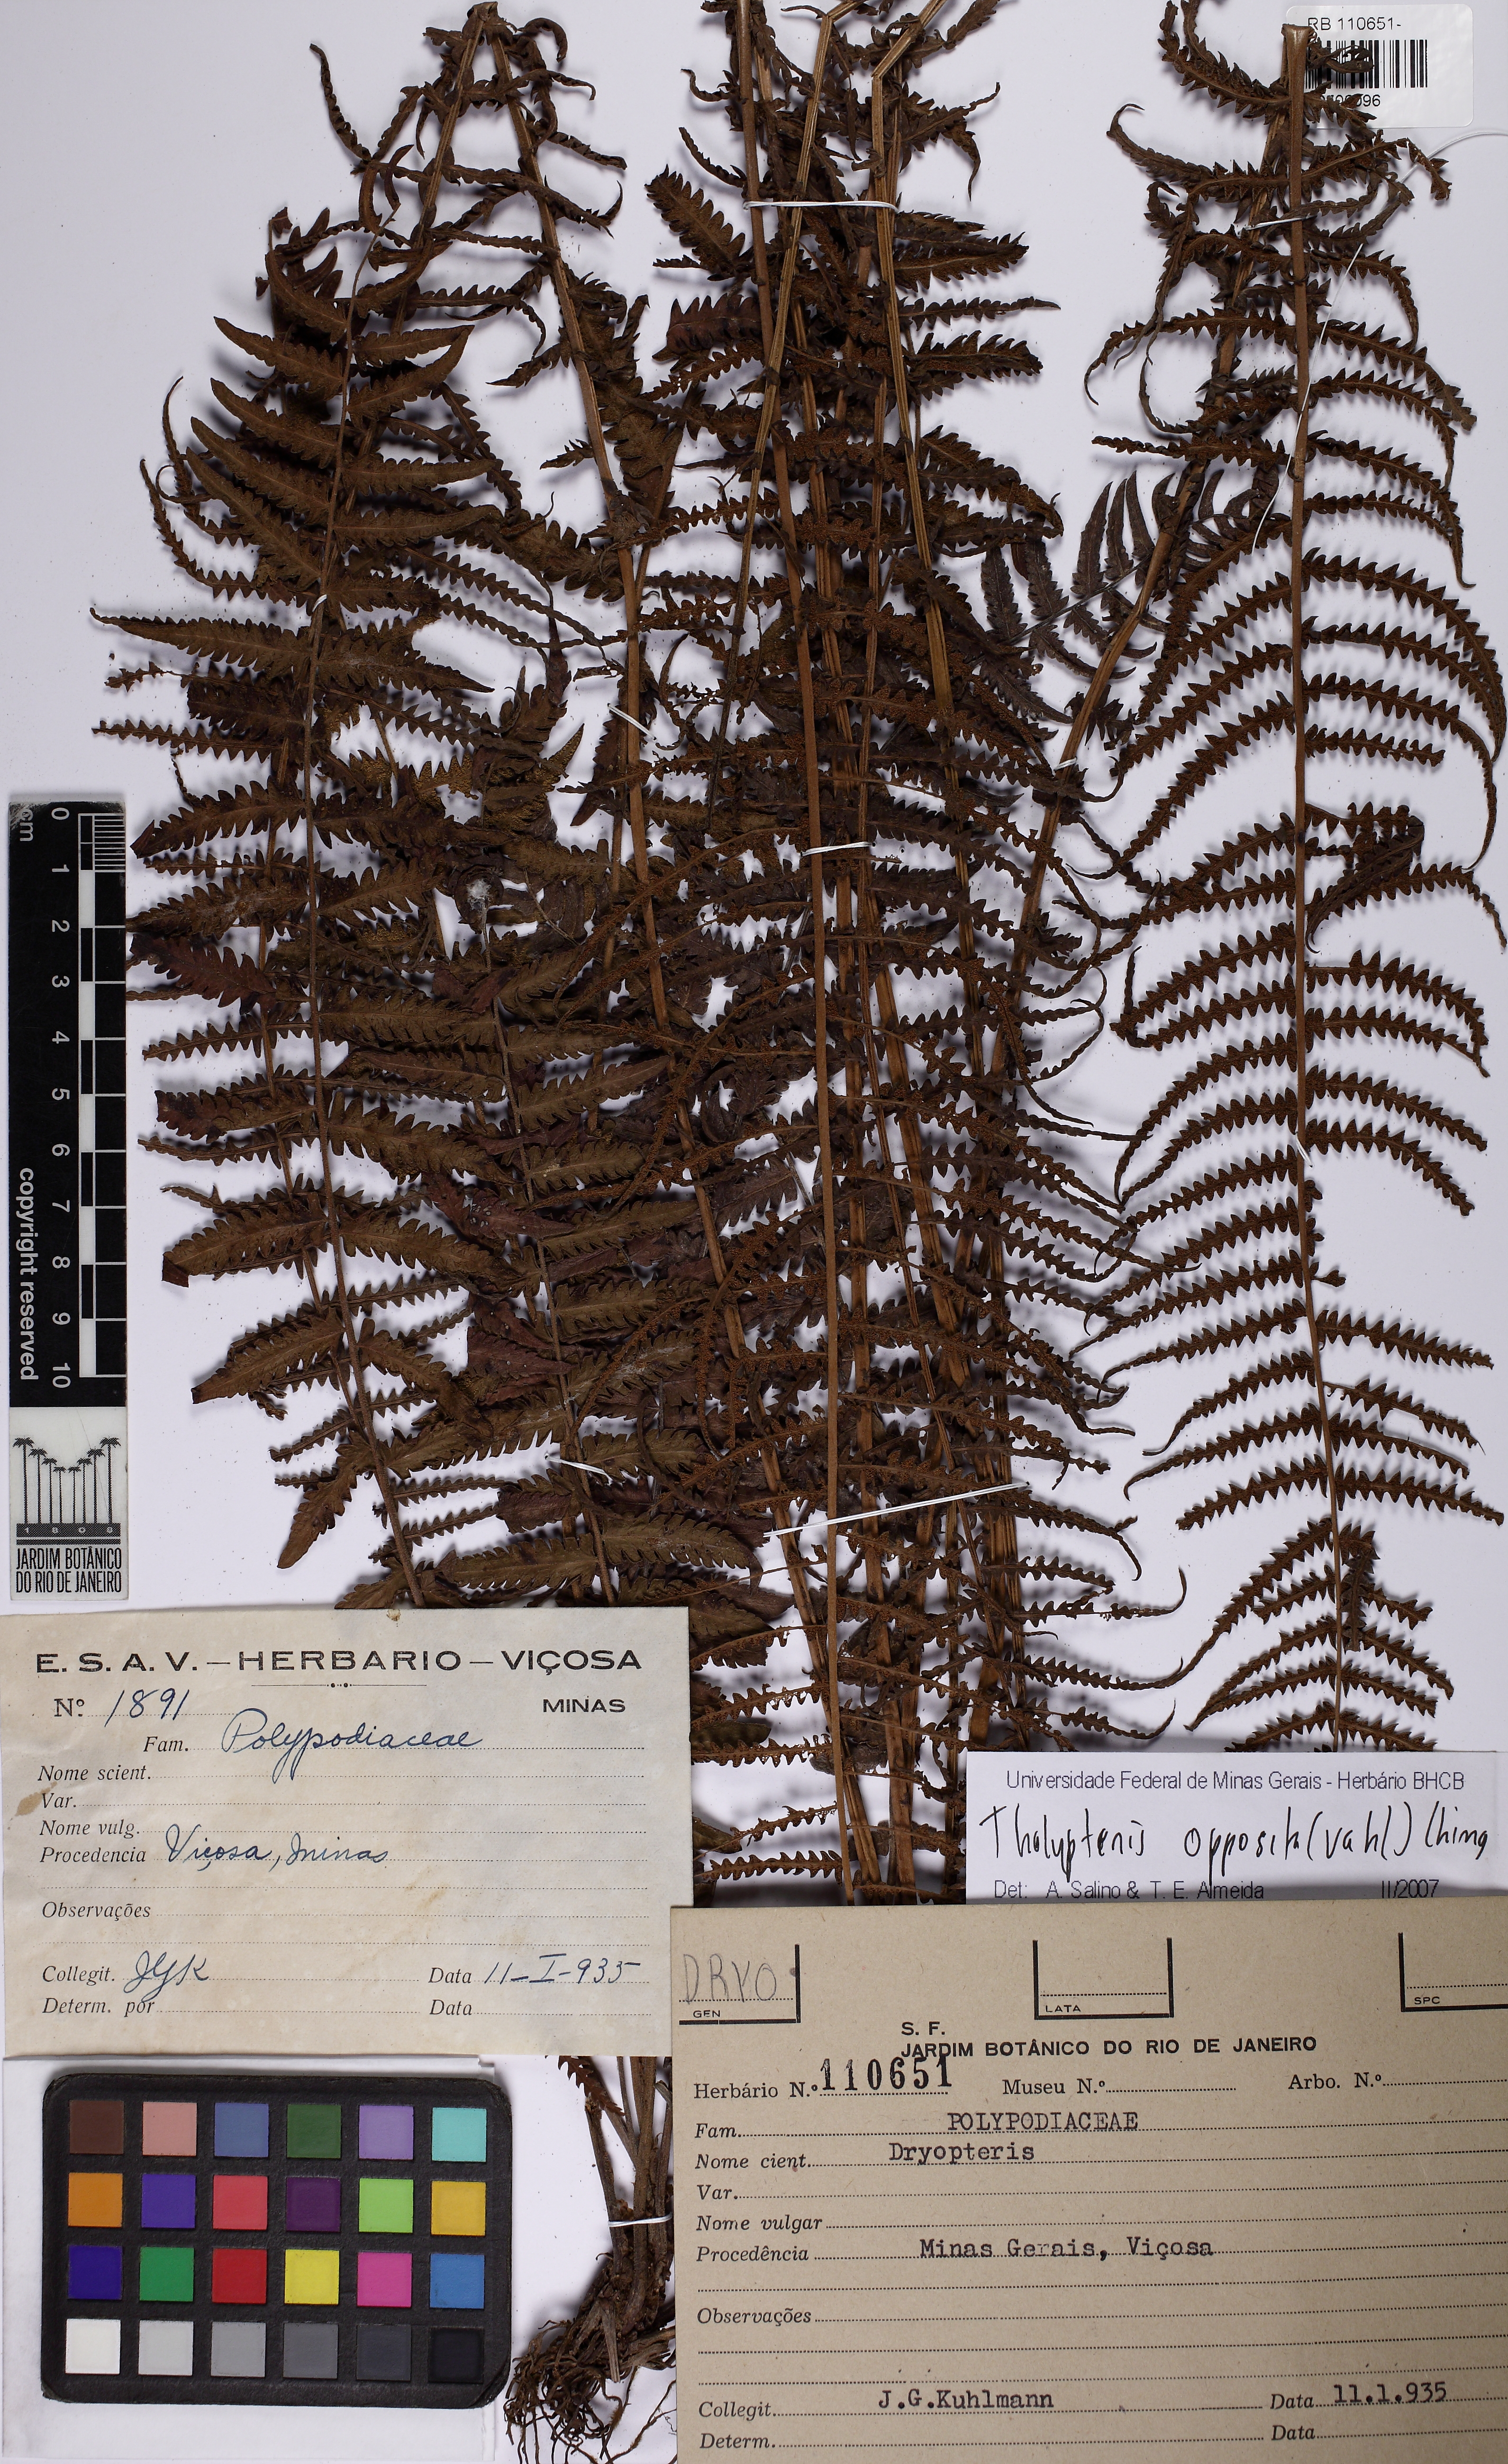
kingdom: Plantae
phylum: Tracheophyta
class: Polypodiopsida
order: Polypodiales
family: Thelypteridaceae
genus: Amauropelta
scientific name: Amauropelta opposita
